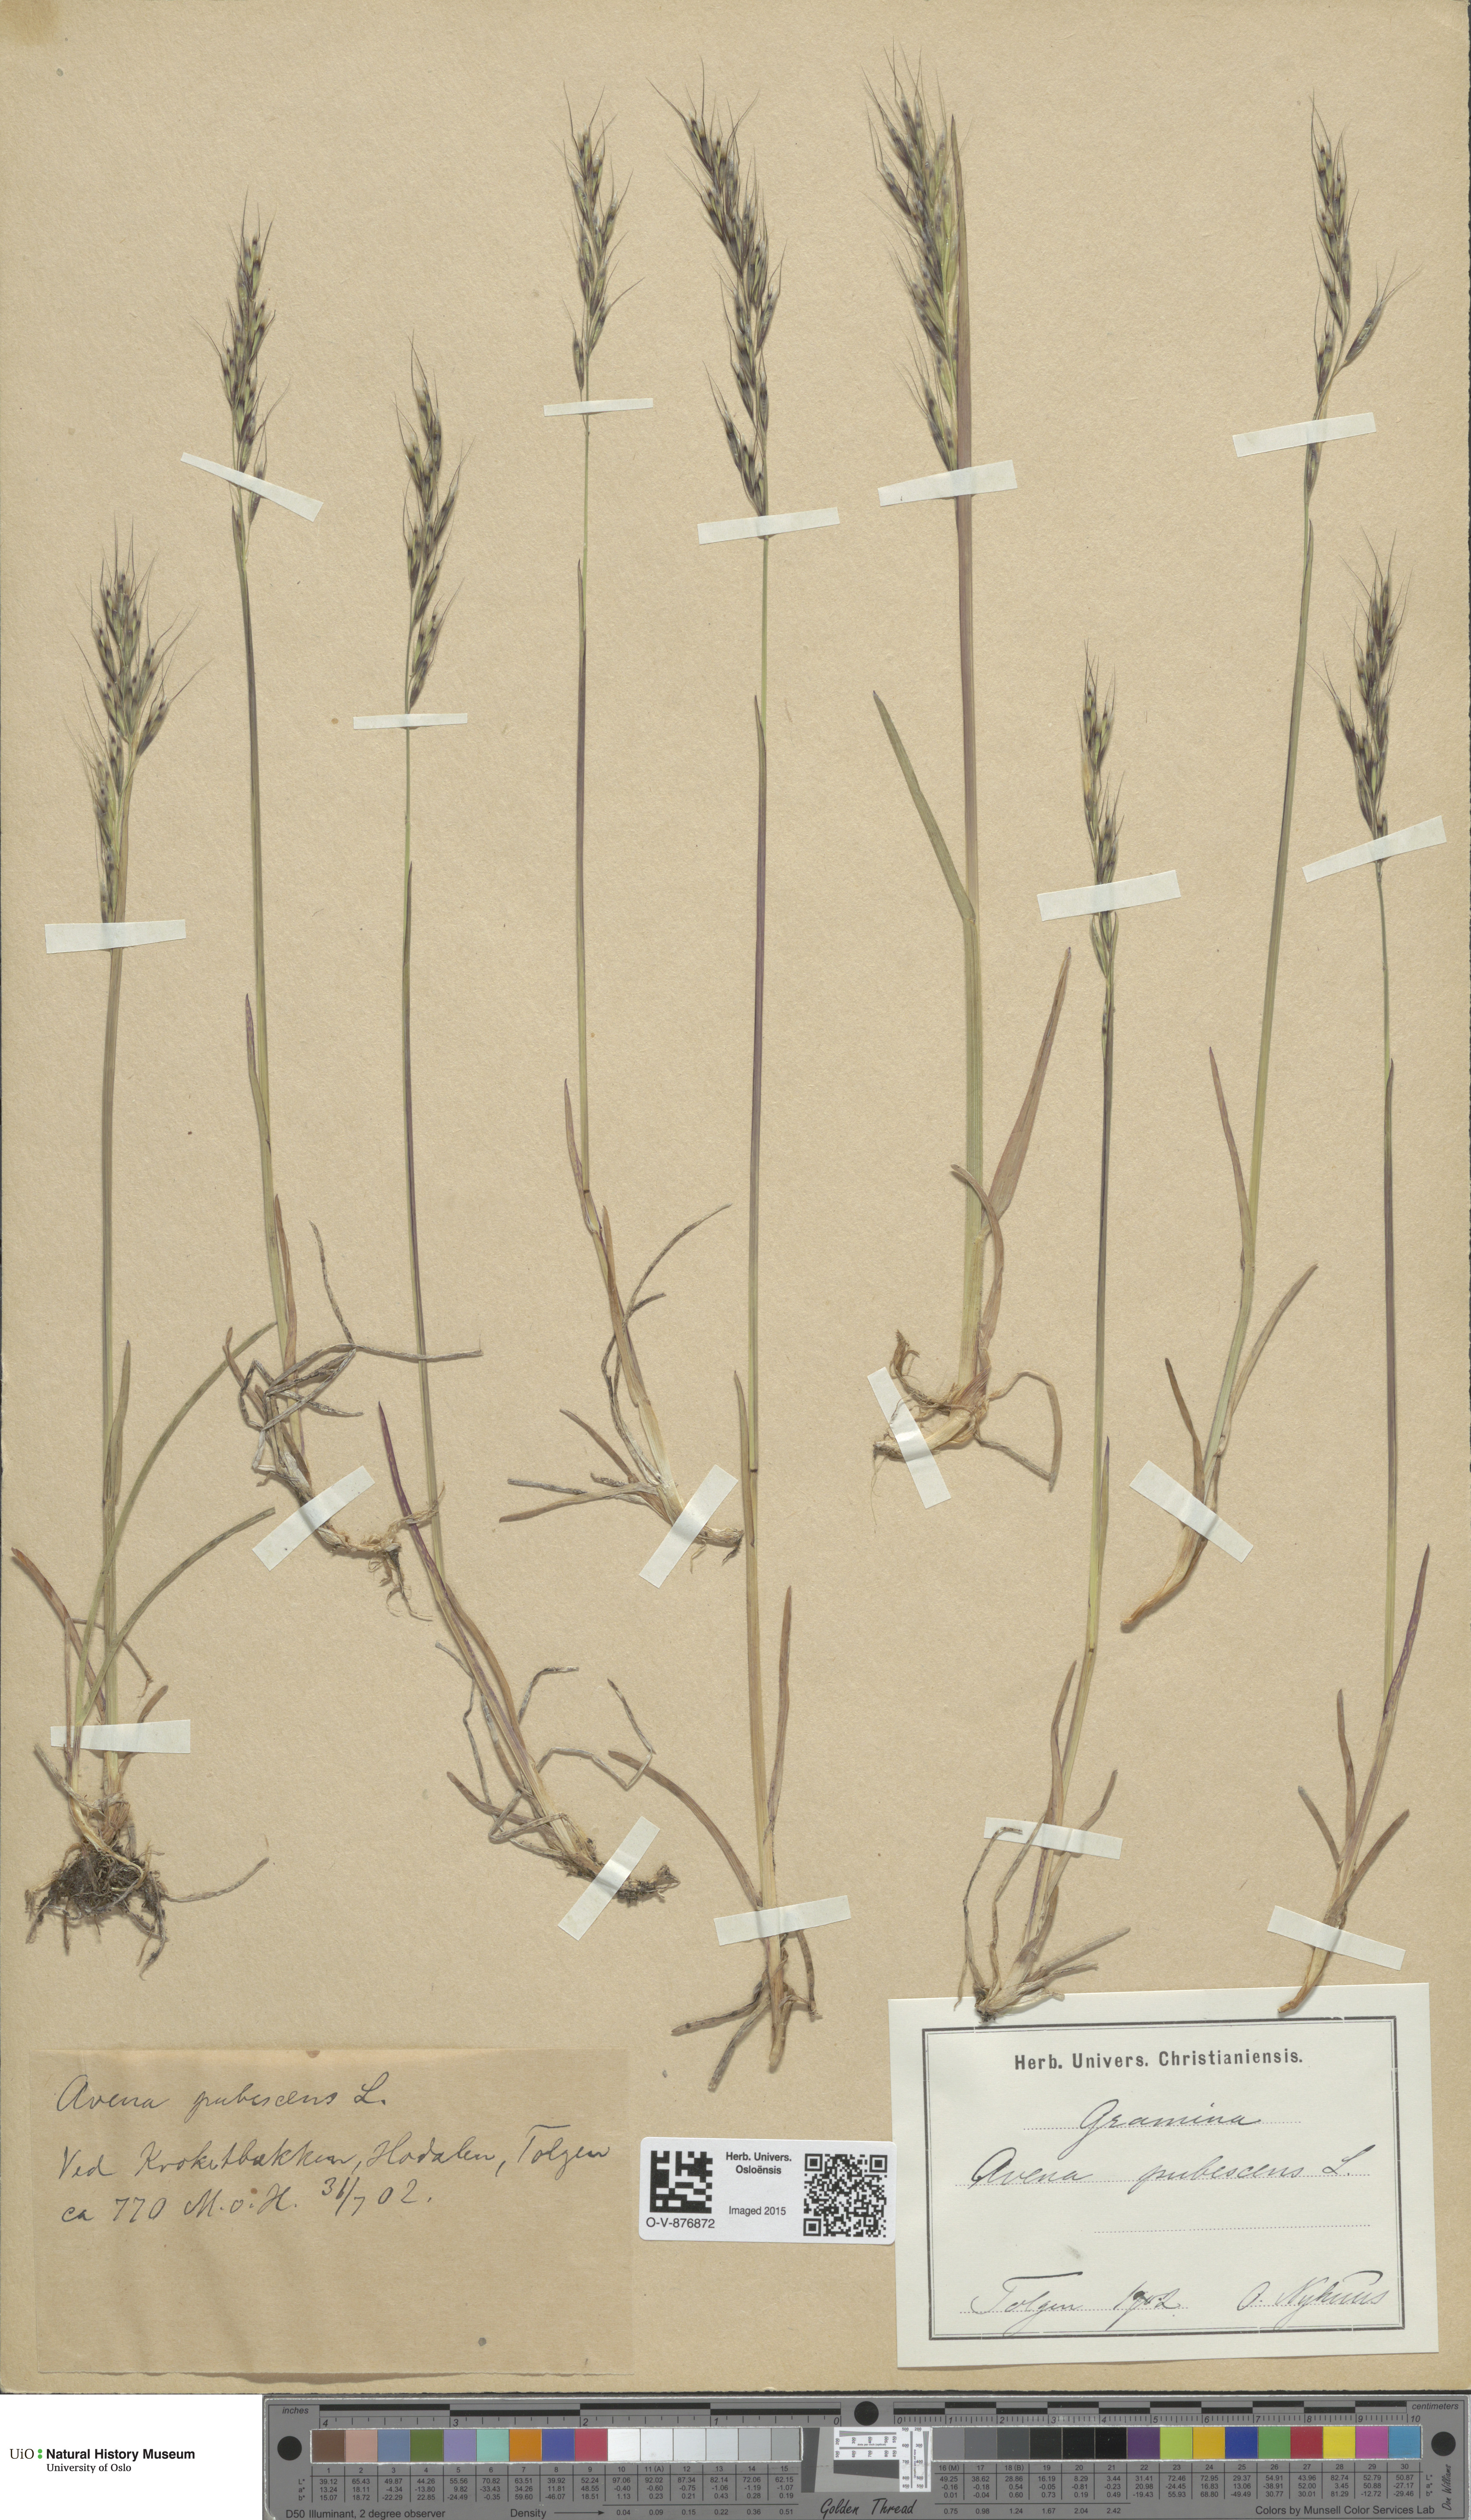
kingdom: Plantae
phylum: Tracheophyta
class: Liliopsida
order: Poales
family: Poaceae
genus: Avenula
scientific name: Avenula pubescens
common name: Downy alpine oatgrass
